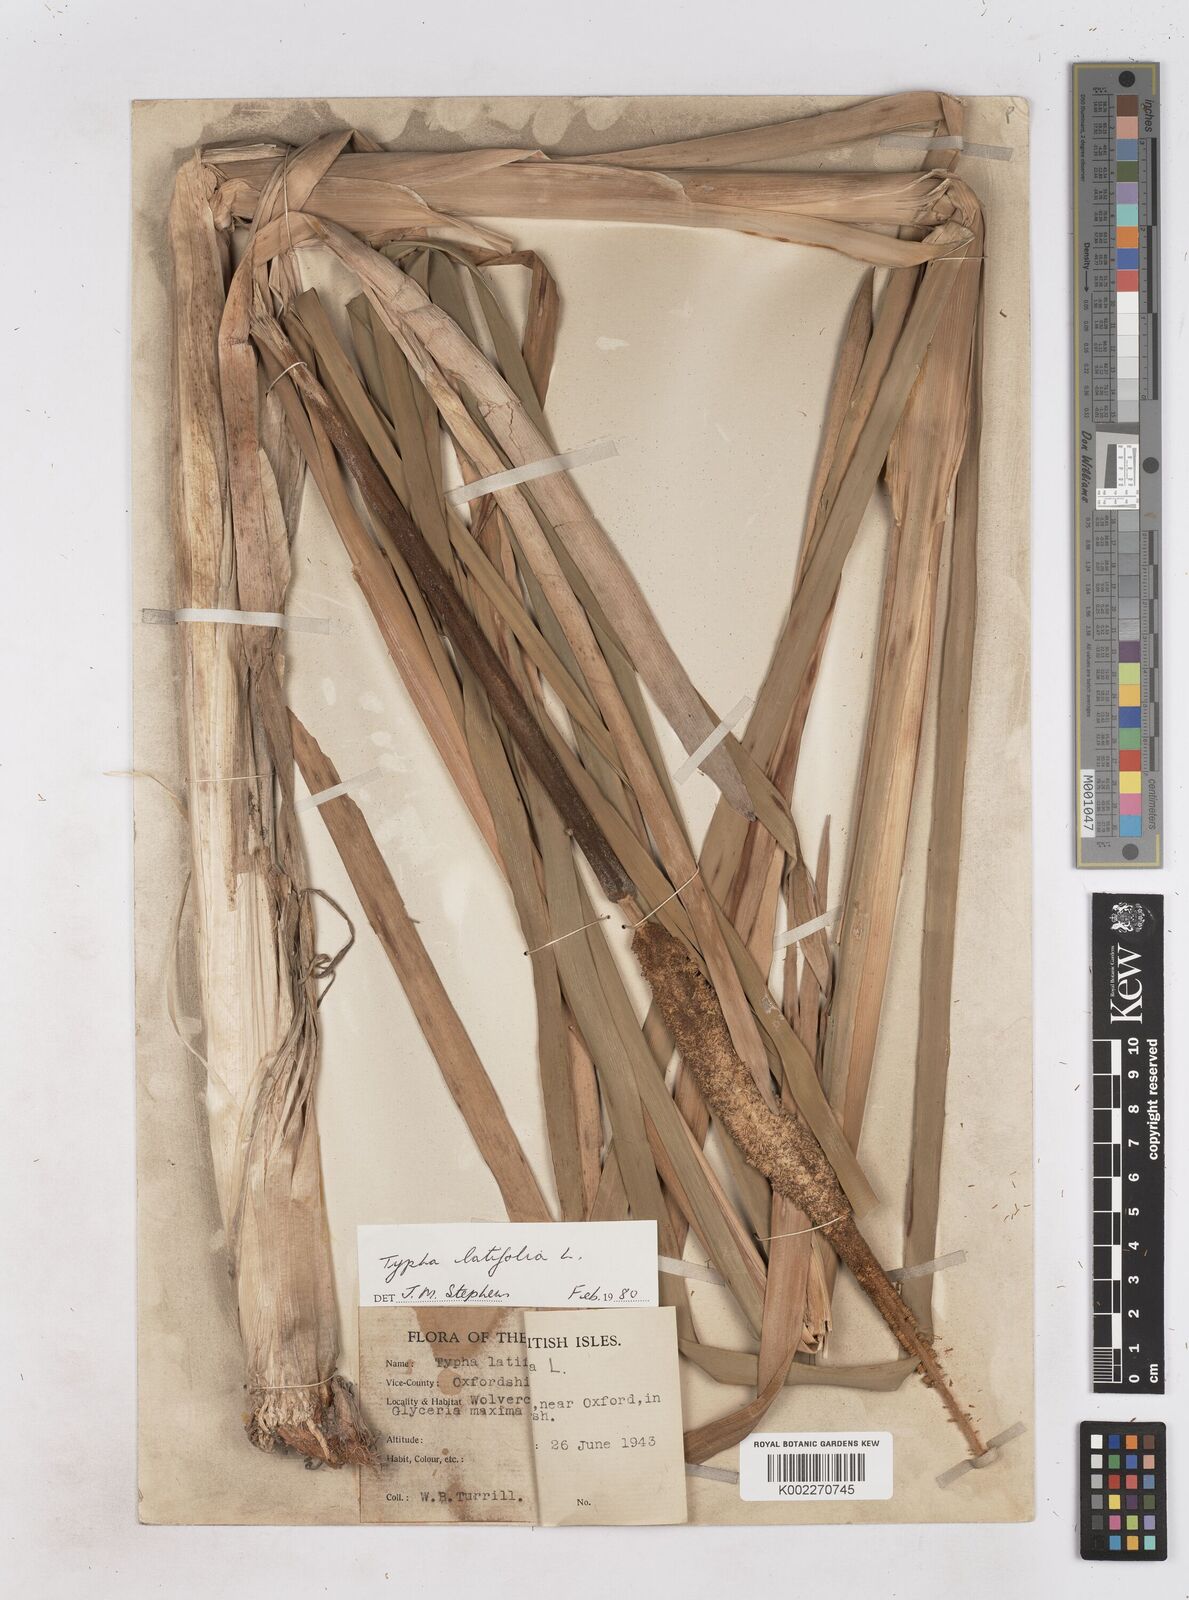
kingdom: Plantae
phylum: Tracheophyta
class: Liliopsida
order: Poales
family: Typhaceae
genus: Typha
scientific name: Typha latifolia
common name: Broadleaf cattail
